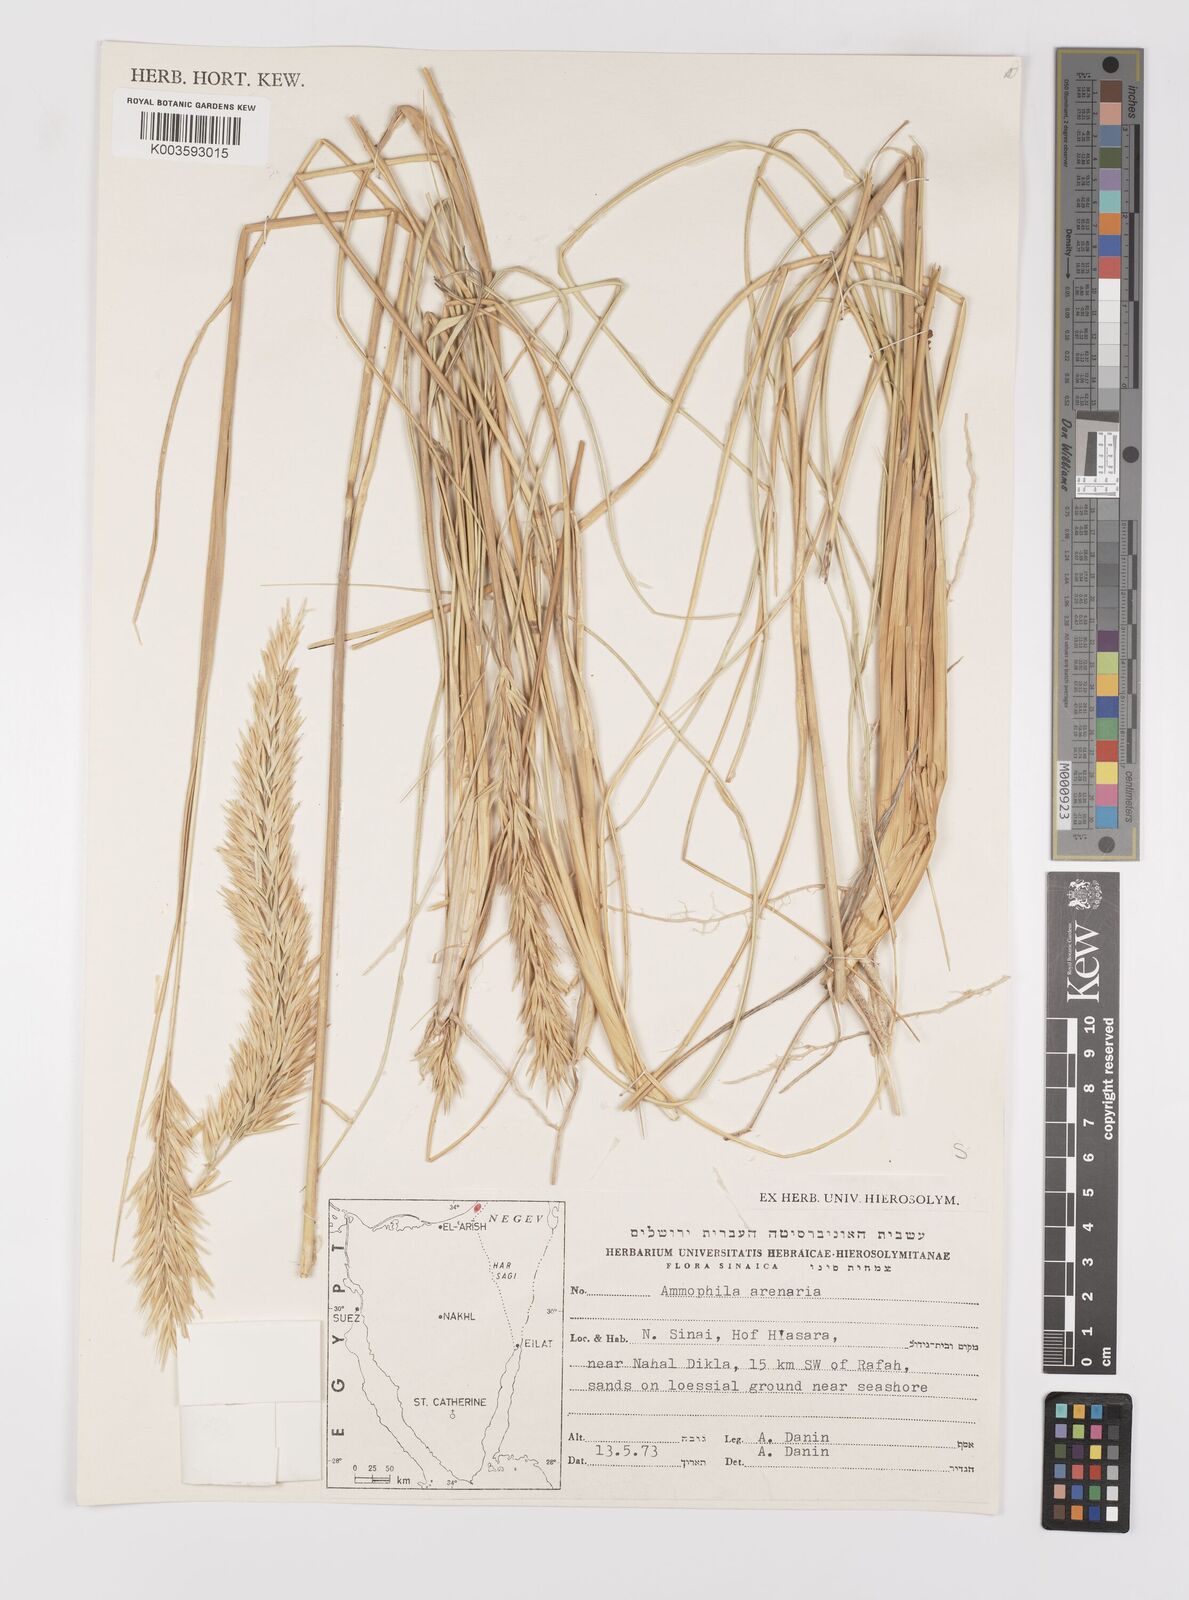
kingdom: Plantae
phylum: Tracheophyta
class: Liliopsida
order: Poales
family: Poaceae
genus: Calamagrostis
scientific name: Calamagrostis arenaria
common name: European beachgrass
